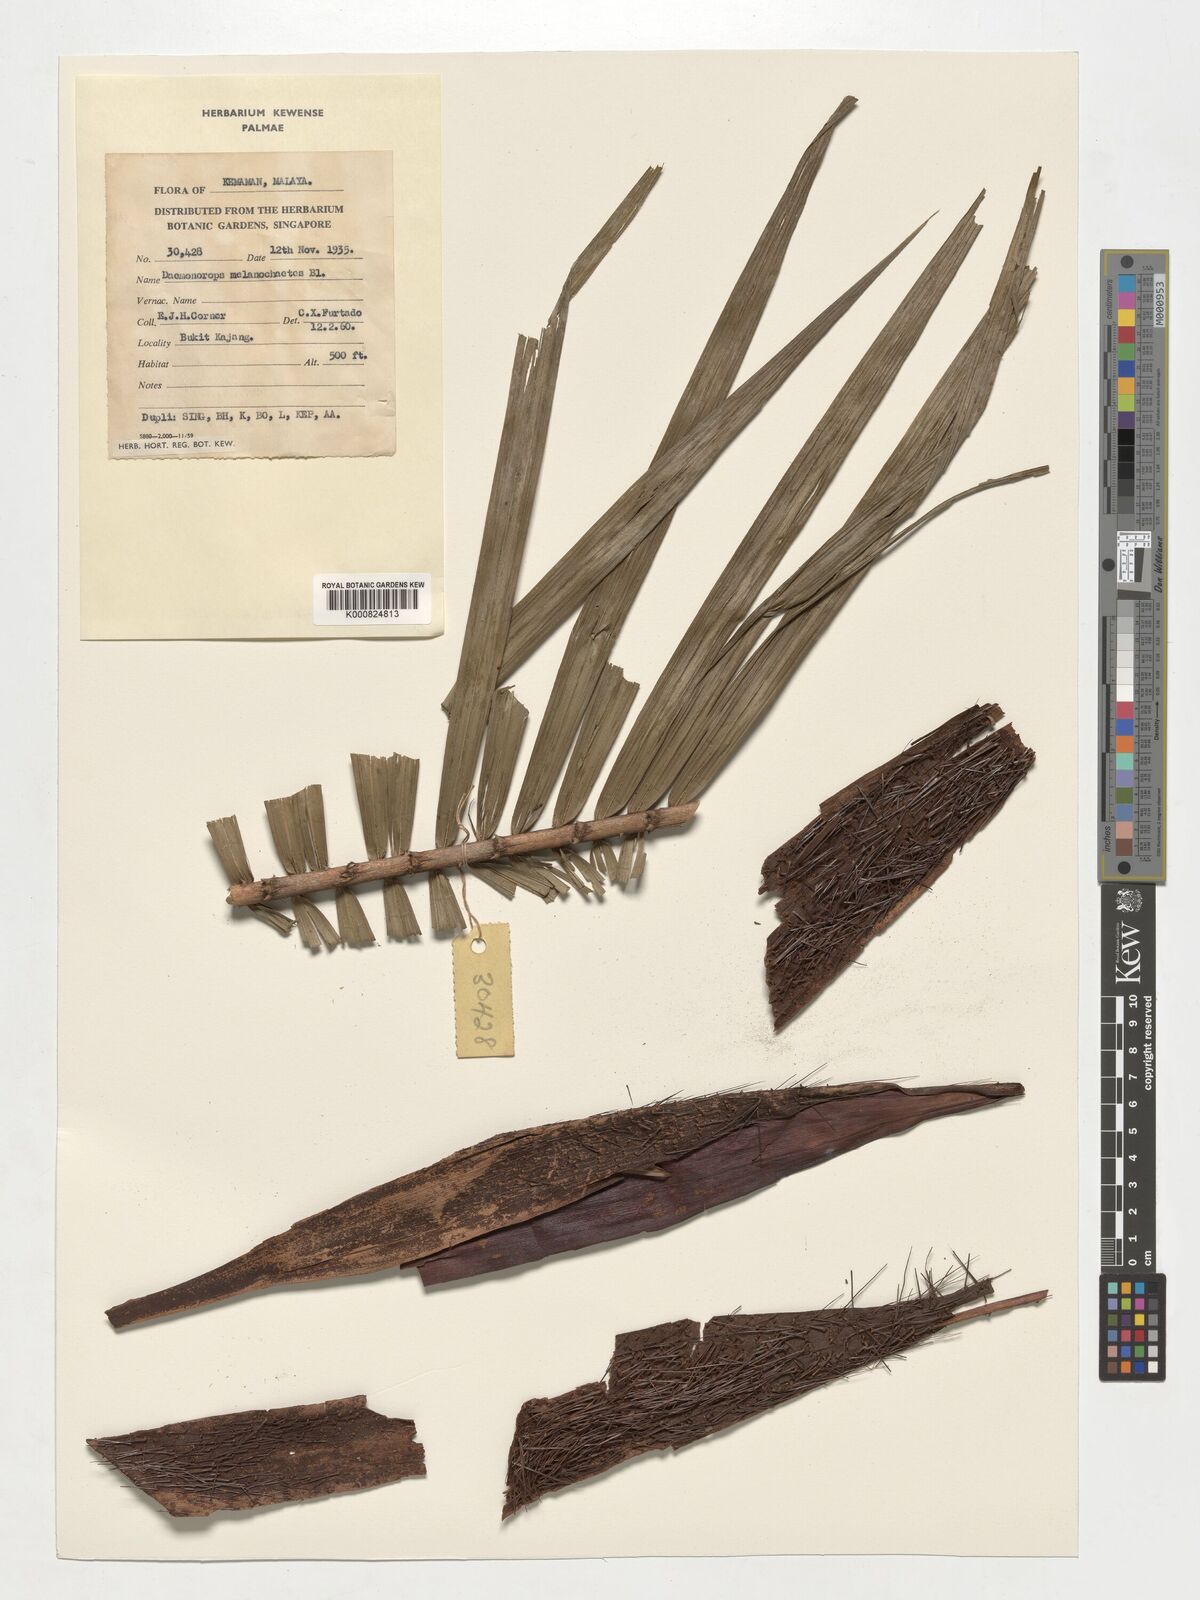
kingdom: Plantae
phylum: Tracheophyta
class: Liliopsida
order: Arecales
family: Arecaceae
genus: Calamus
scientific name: Calamus melanochaetes
